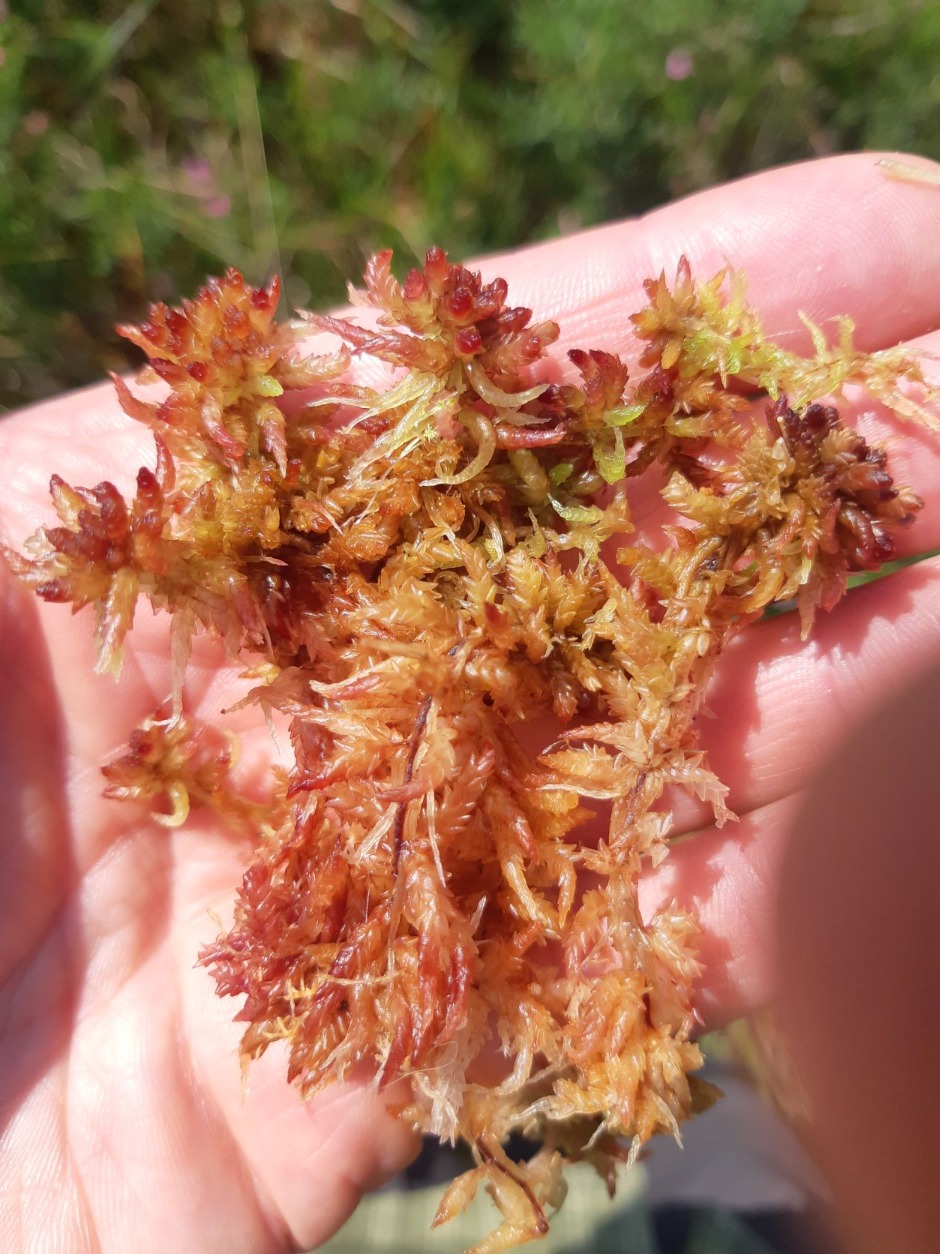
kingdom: Plantae
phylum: Bryophyta
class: Sphagnopsida
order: Sphagnales
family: Sphagnaceae
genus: Sphagnum
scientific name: Sphagnum
